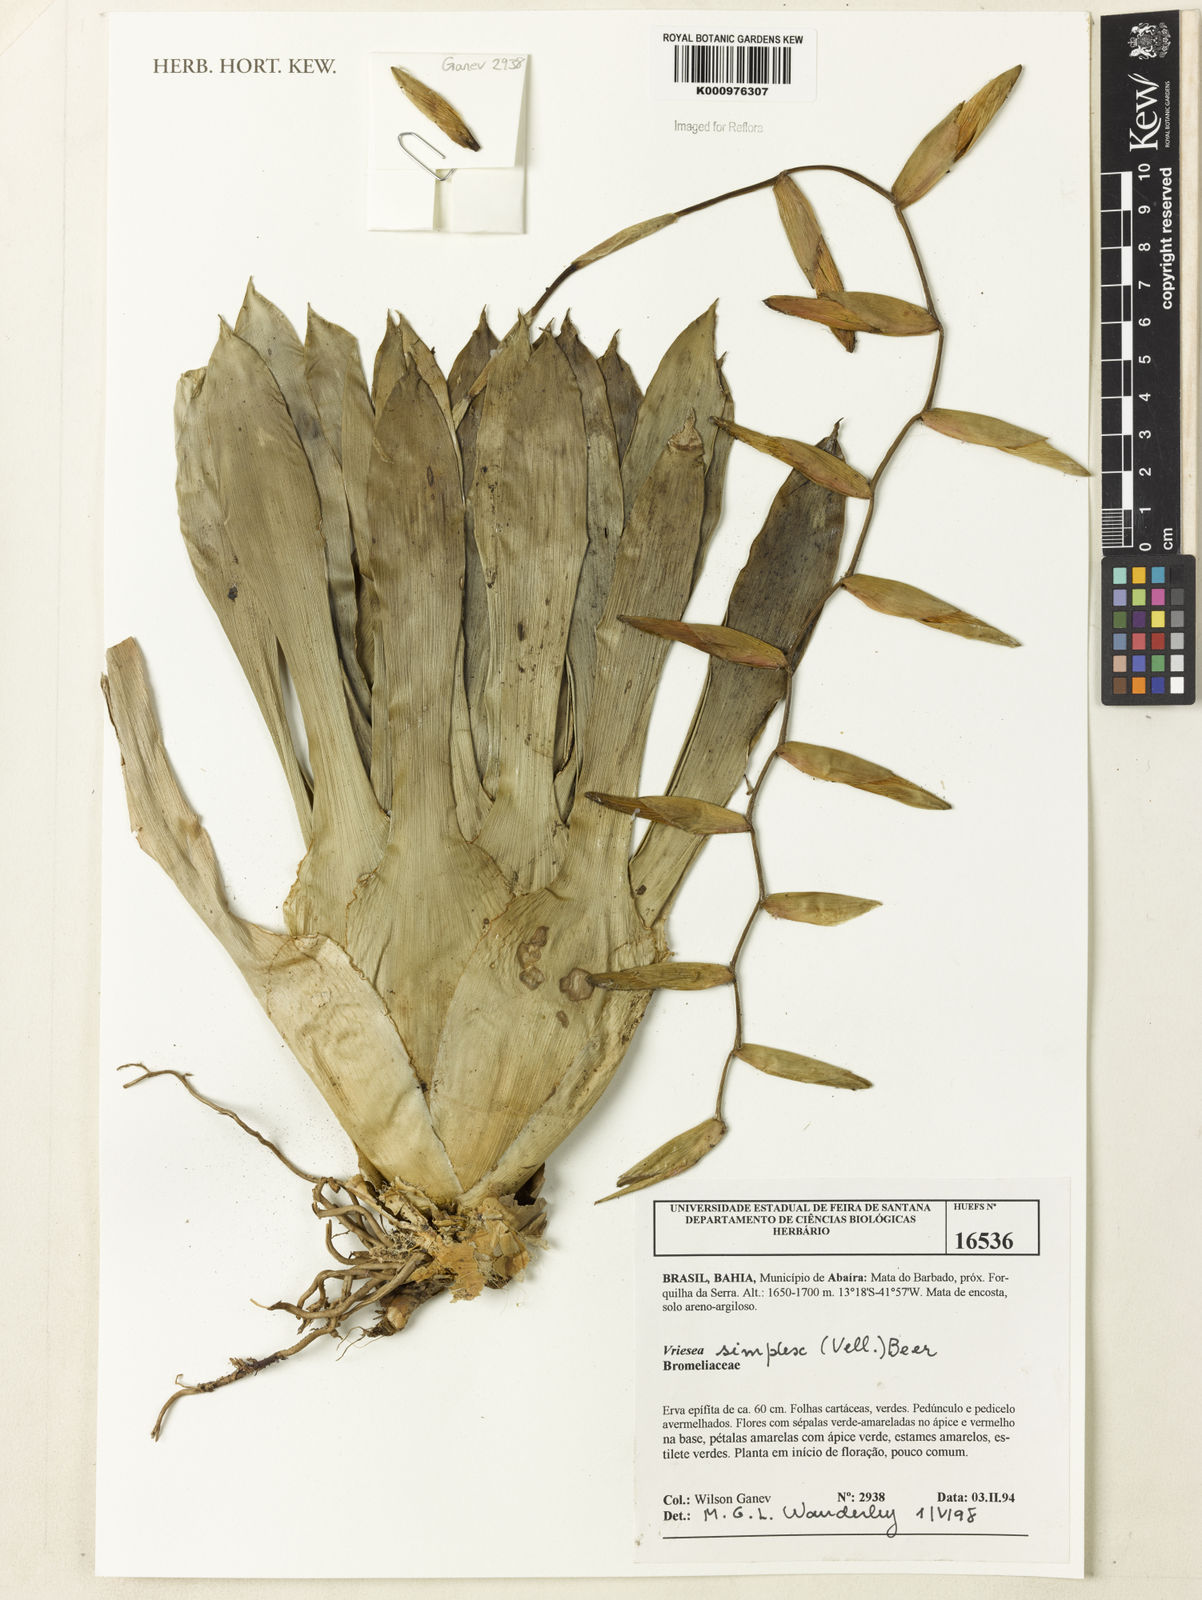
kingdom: Plantae
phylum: Tracheophyta
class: Liliopsida
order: Poales
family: Bromeliaceae
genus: Vriesea
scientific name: Vriesea simplex
